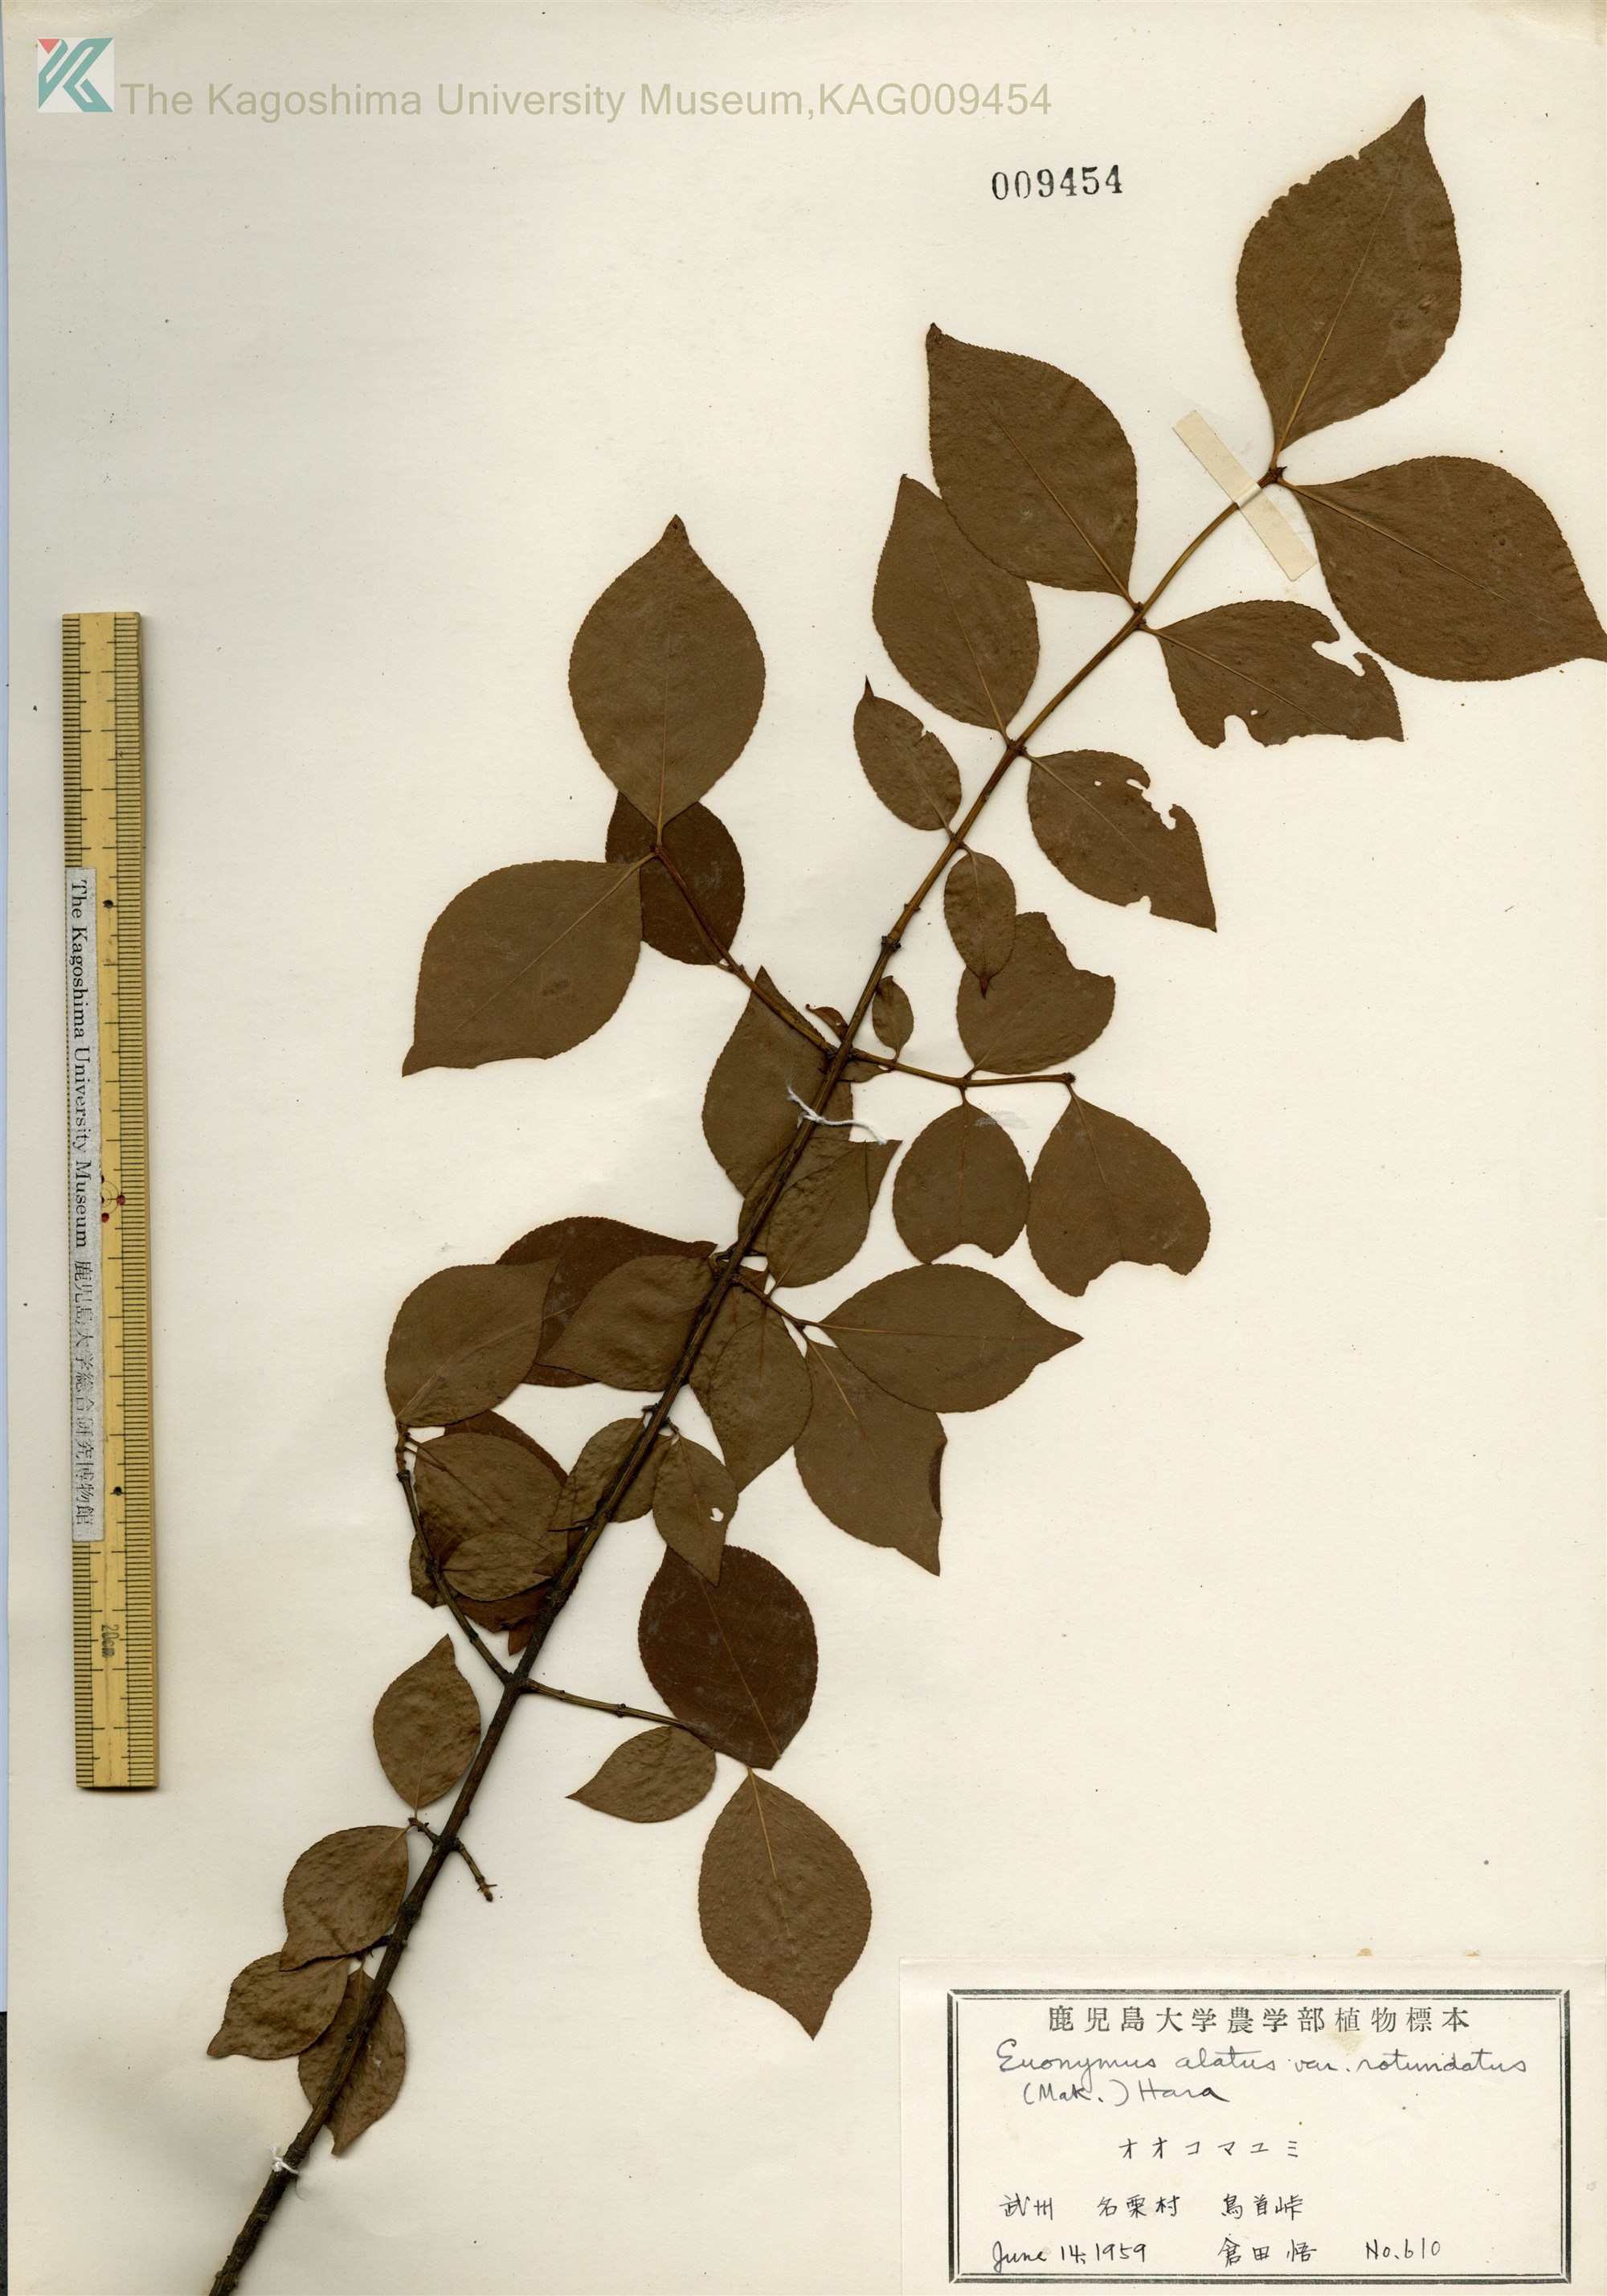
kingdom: Plantae
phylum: Tracheophyta
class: Magnoliopsida
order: Celastrales
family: Celastraceae
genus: Euonymus
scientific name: Euonymus alatus
